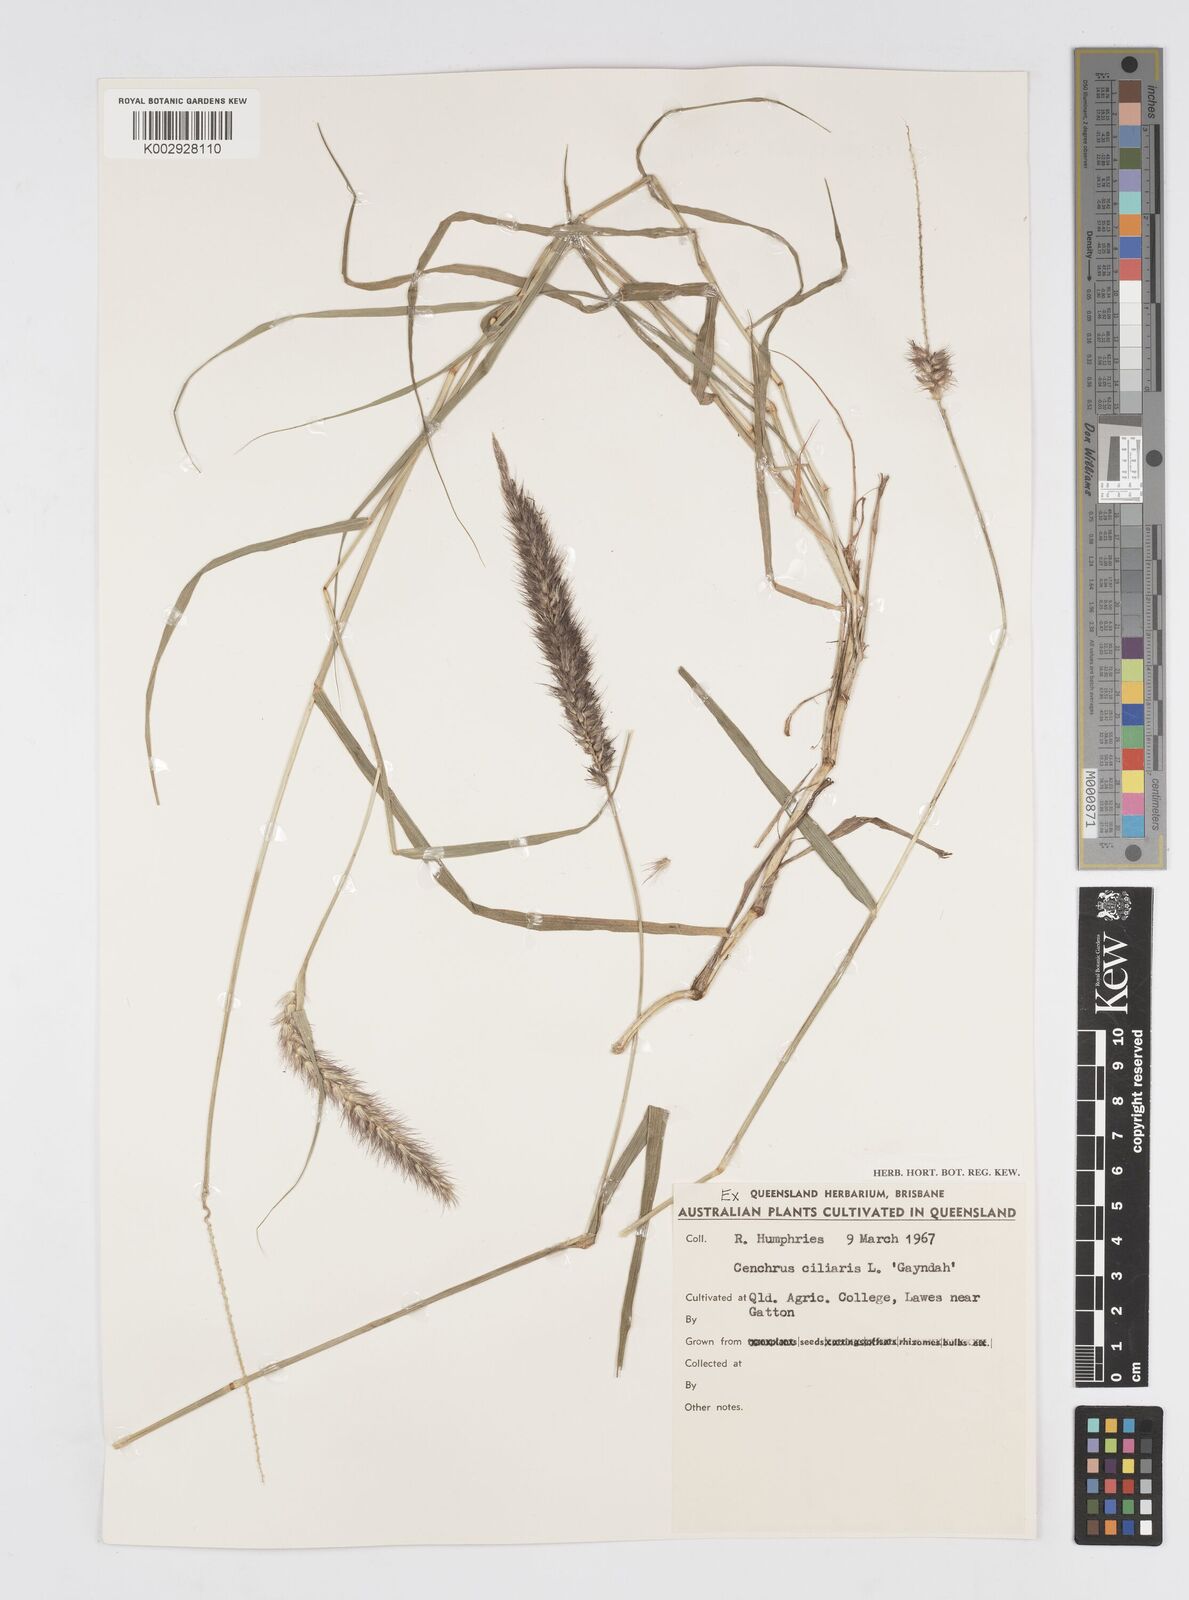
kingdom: Plantae
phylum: Tracheophyta
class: Liliopsida
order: Poales
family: Poaceae
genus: Cenchrus
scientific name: Cenchrus ciliaris
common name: Buffelgrass
